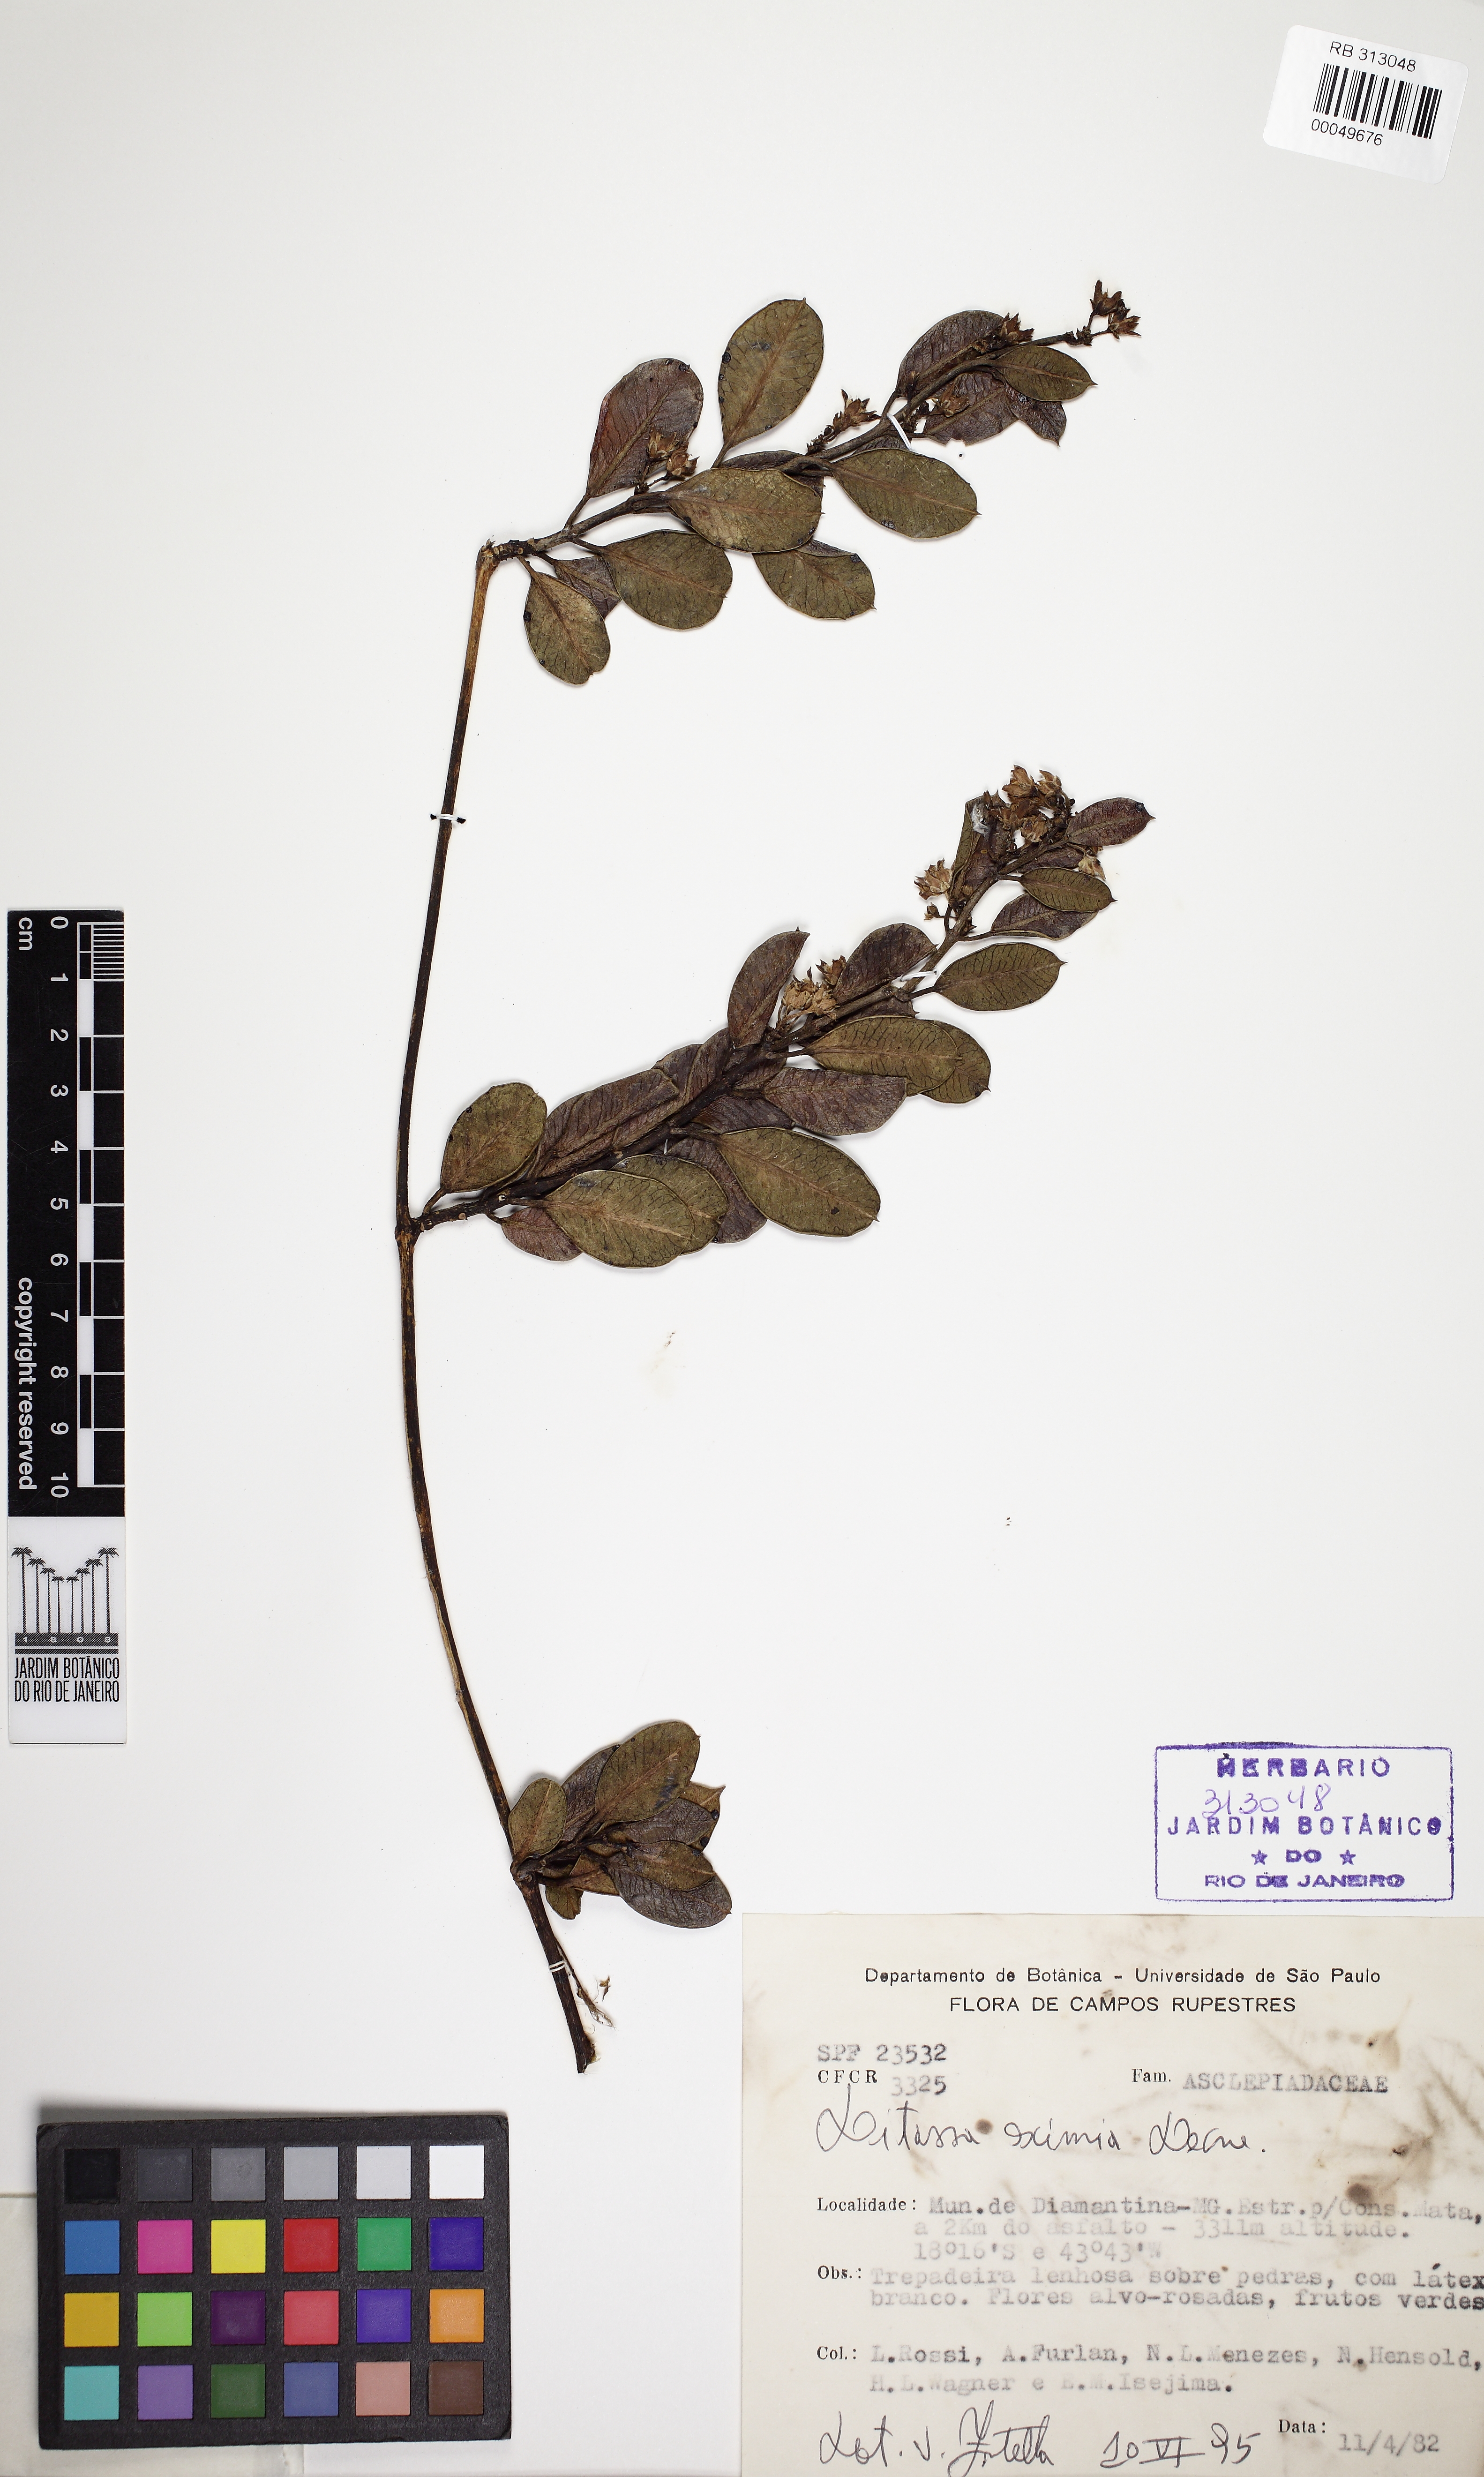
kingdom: Plantae
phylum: Tracheophyta
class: Magnoliopsida
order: Gentianales
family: Apocynaceae
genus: Ditassa
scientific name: Ditassa eximia
